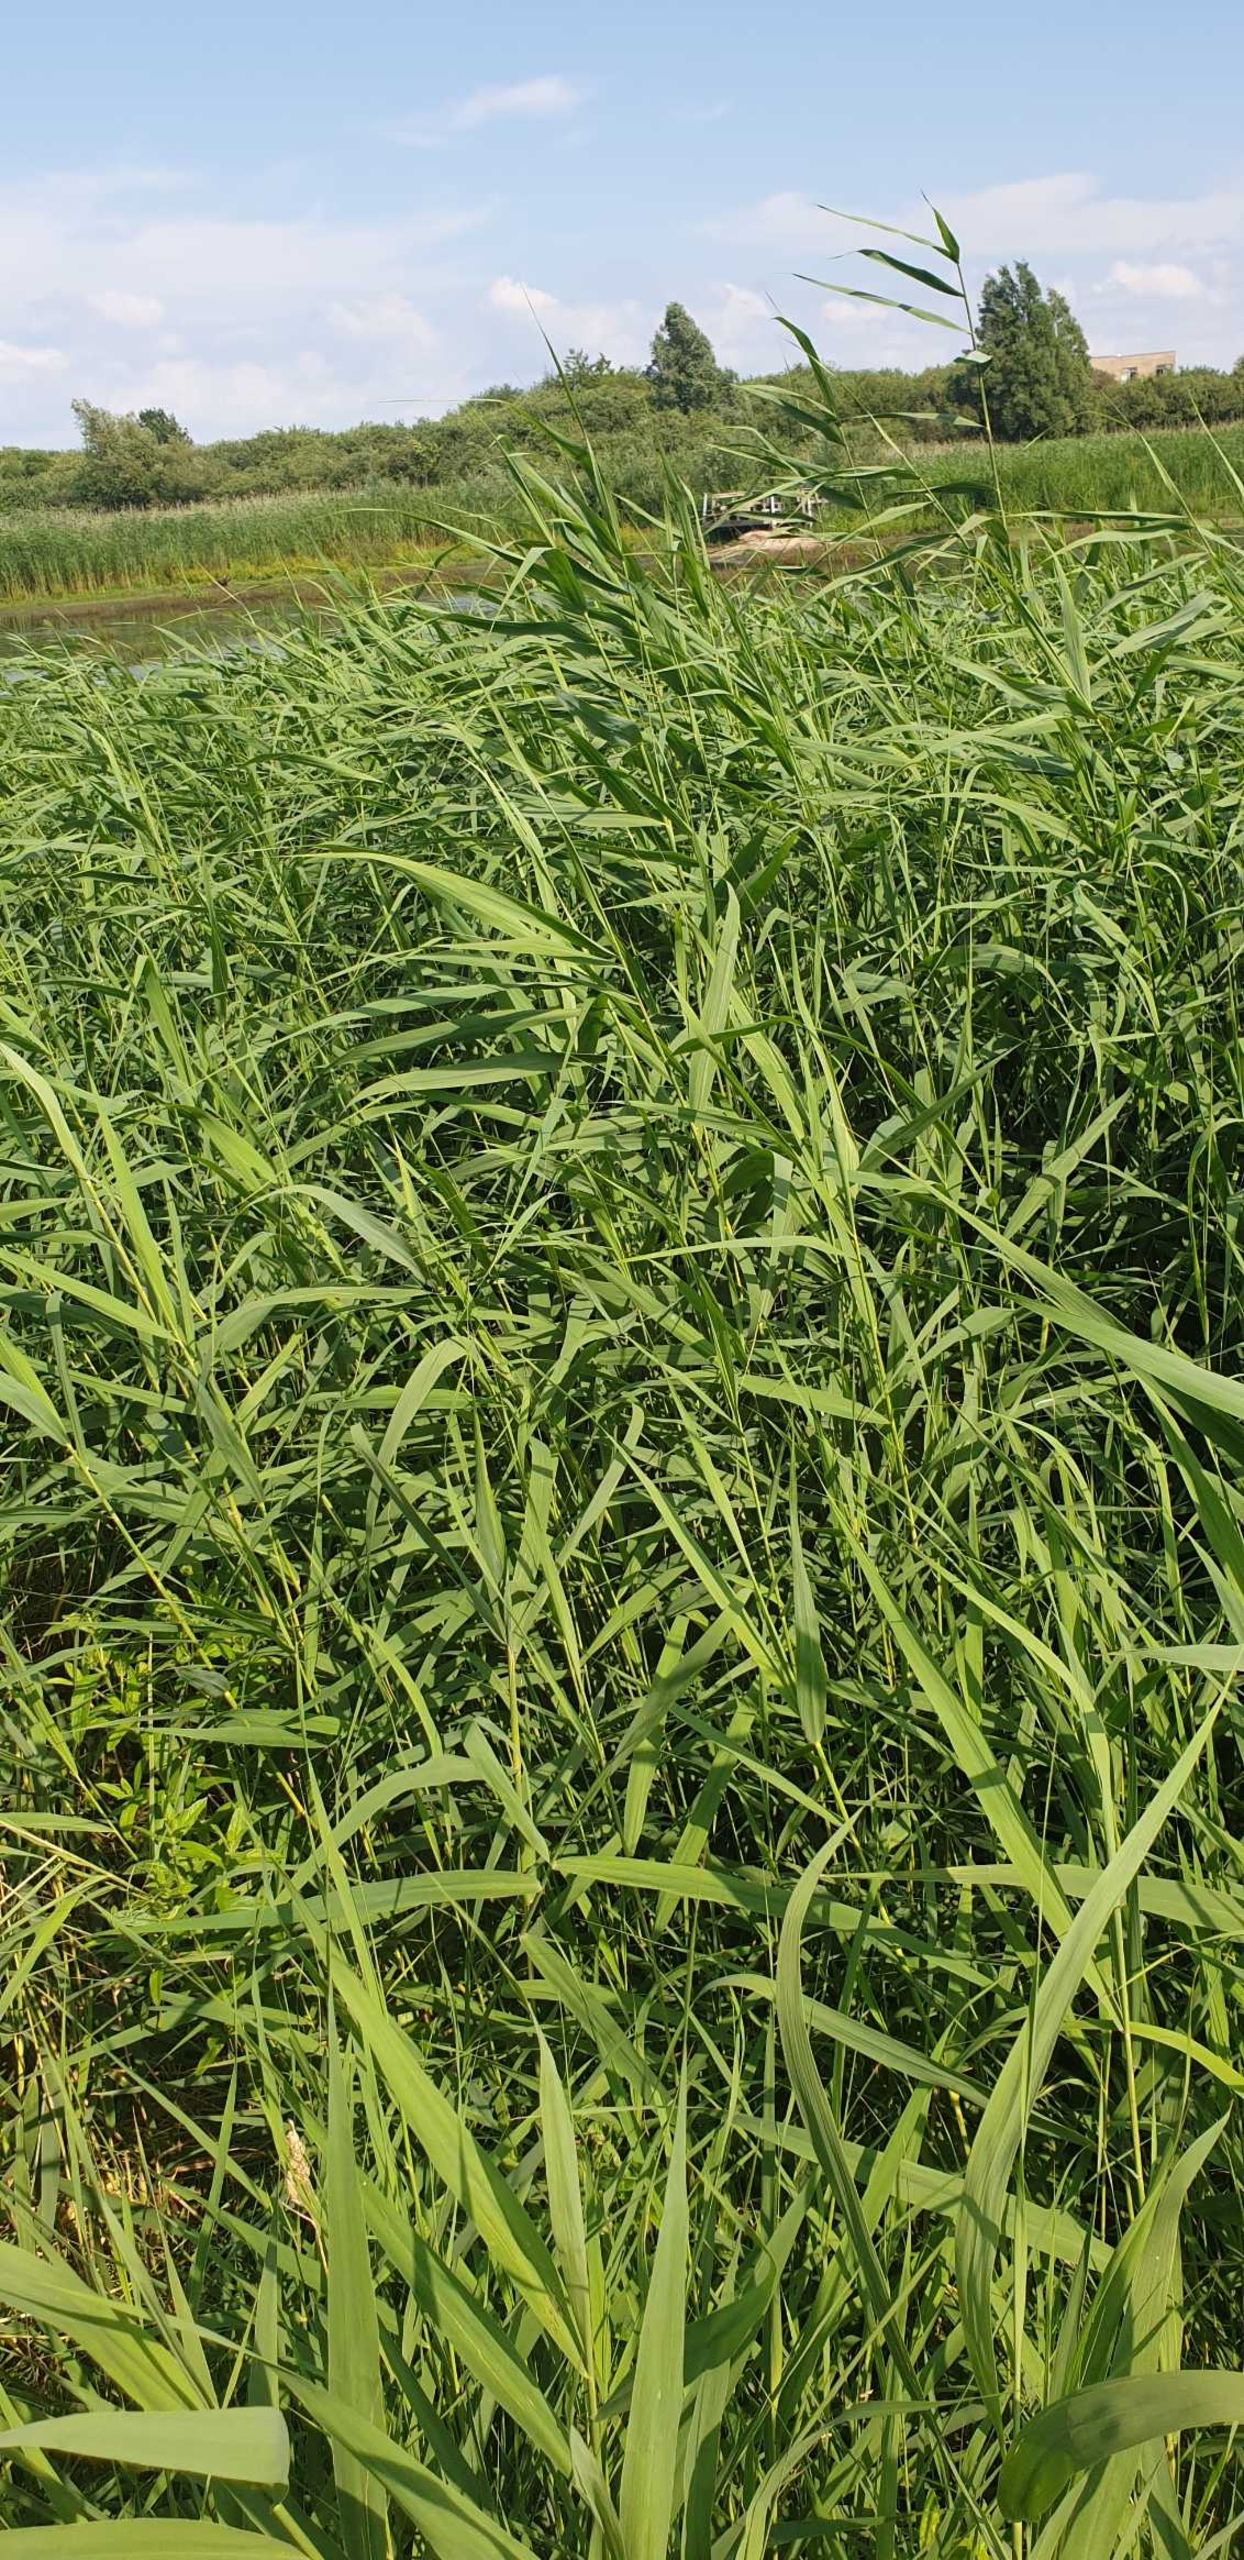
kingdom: Plantae
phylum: Tracheophyta
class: Liliopsida
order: Poales
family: Poaceae
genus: Phragmites
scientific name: Phragmites australis
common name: Tagrør
